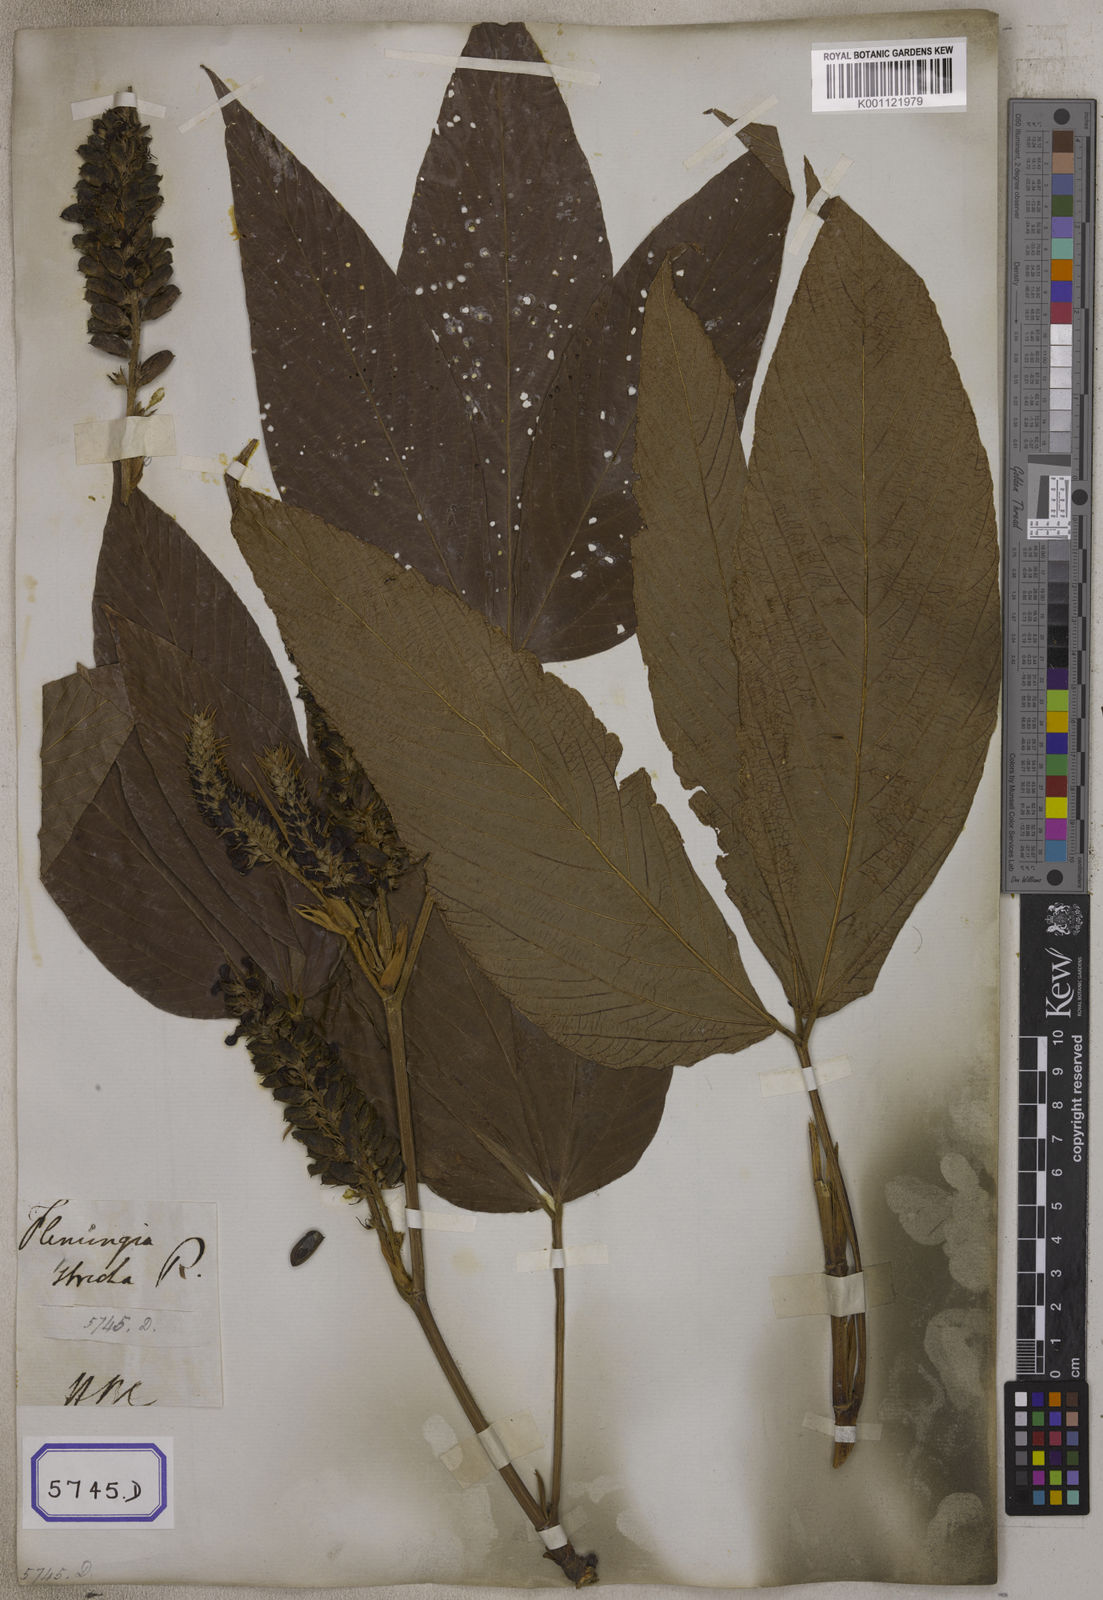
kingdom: Plantae
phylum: Tracheophyta
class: Magnoliopsida
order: Fabales
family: Fabaceae
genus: Flemingia
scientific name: Flemingia
